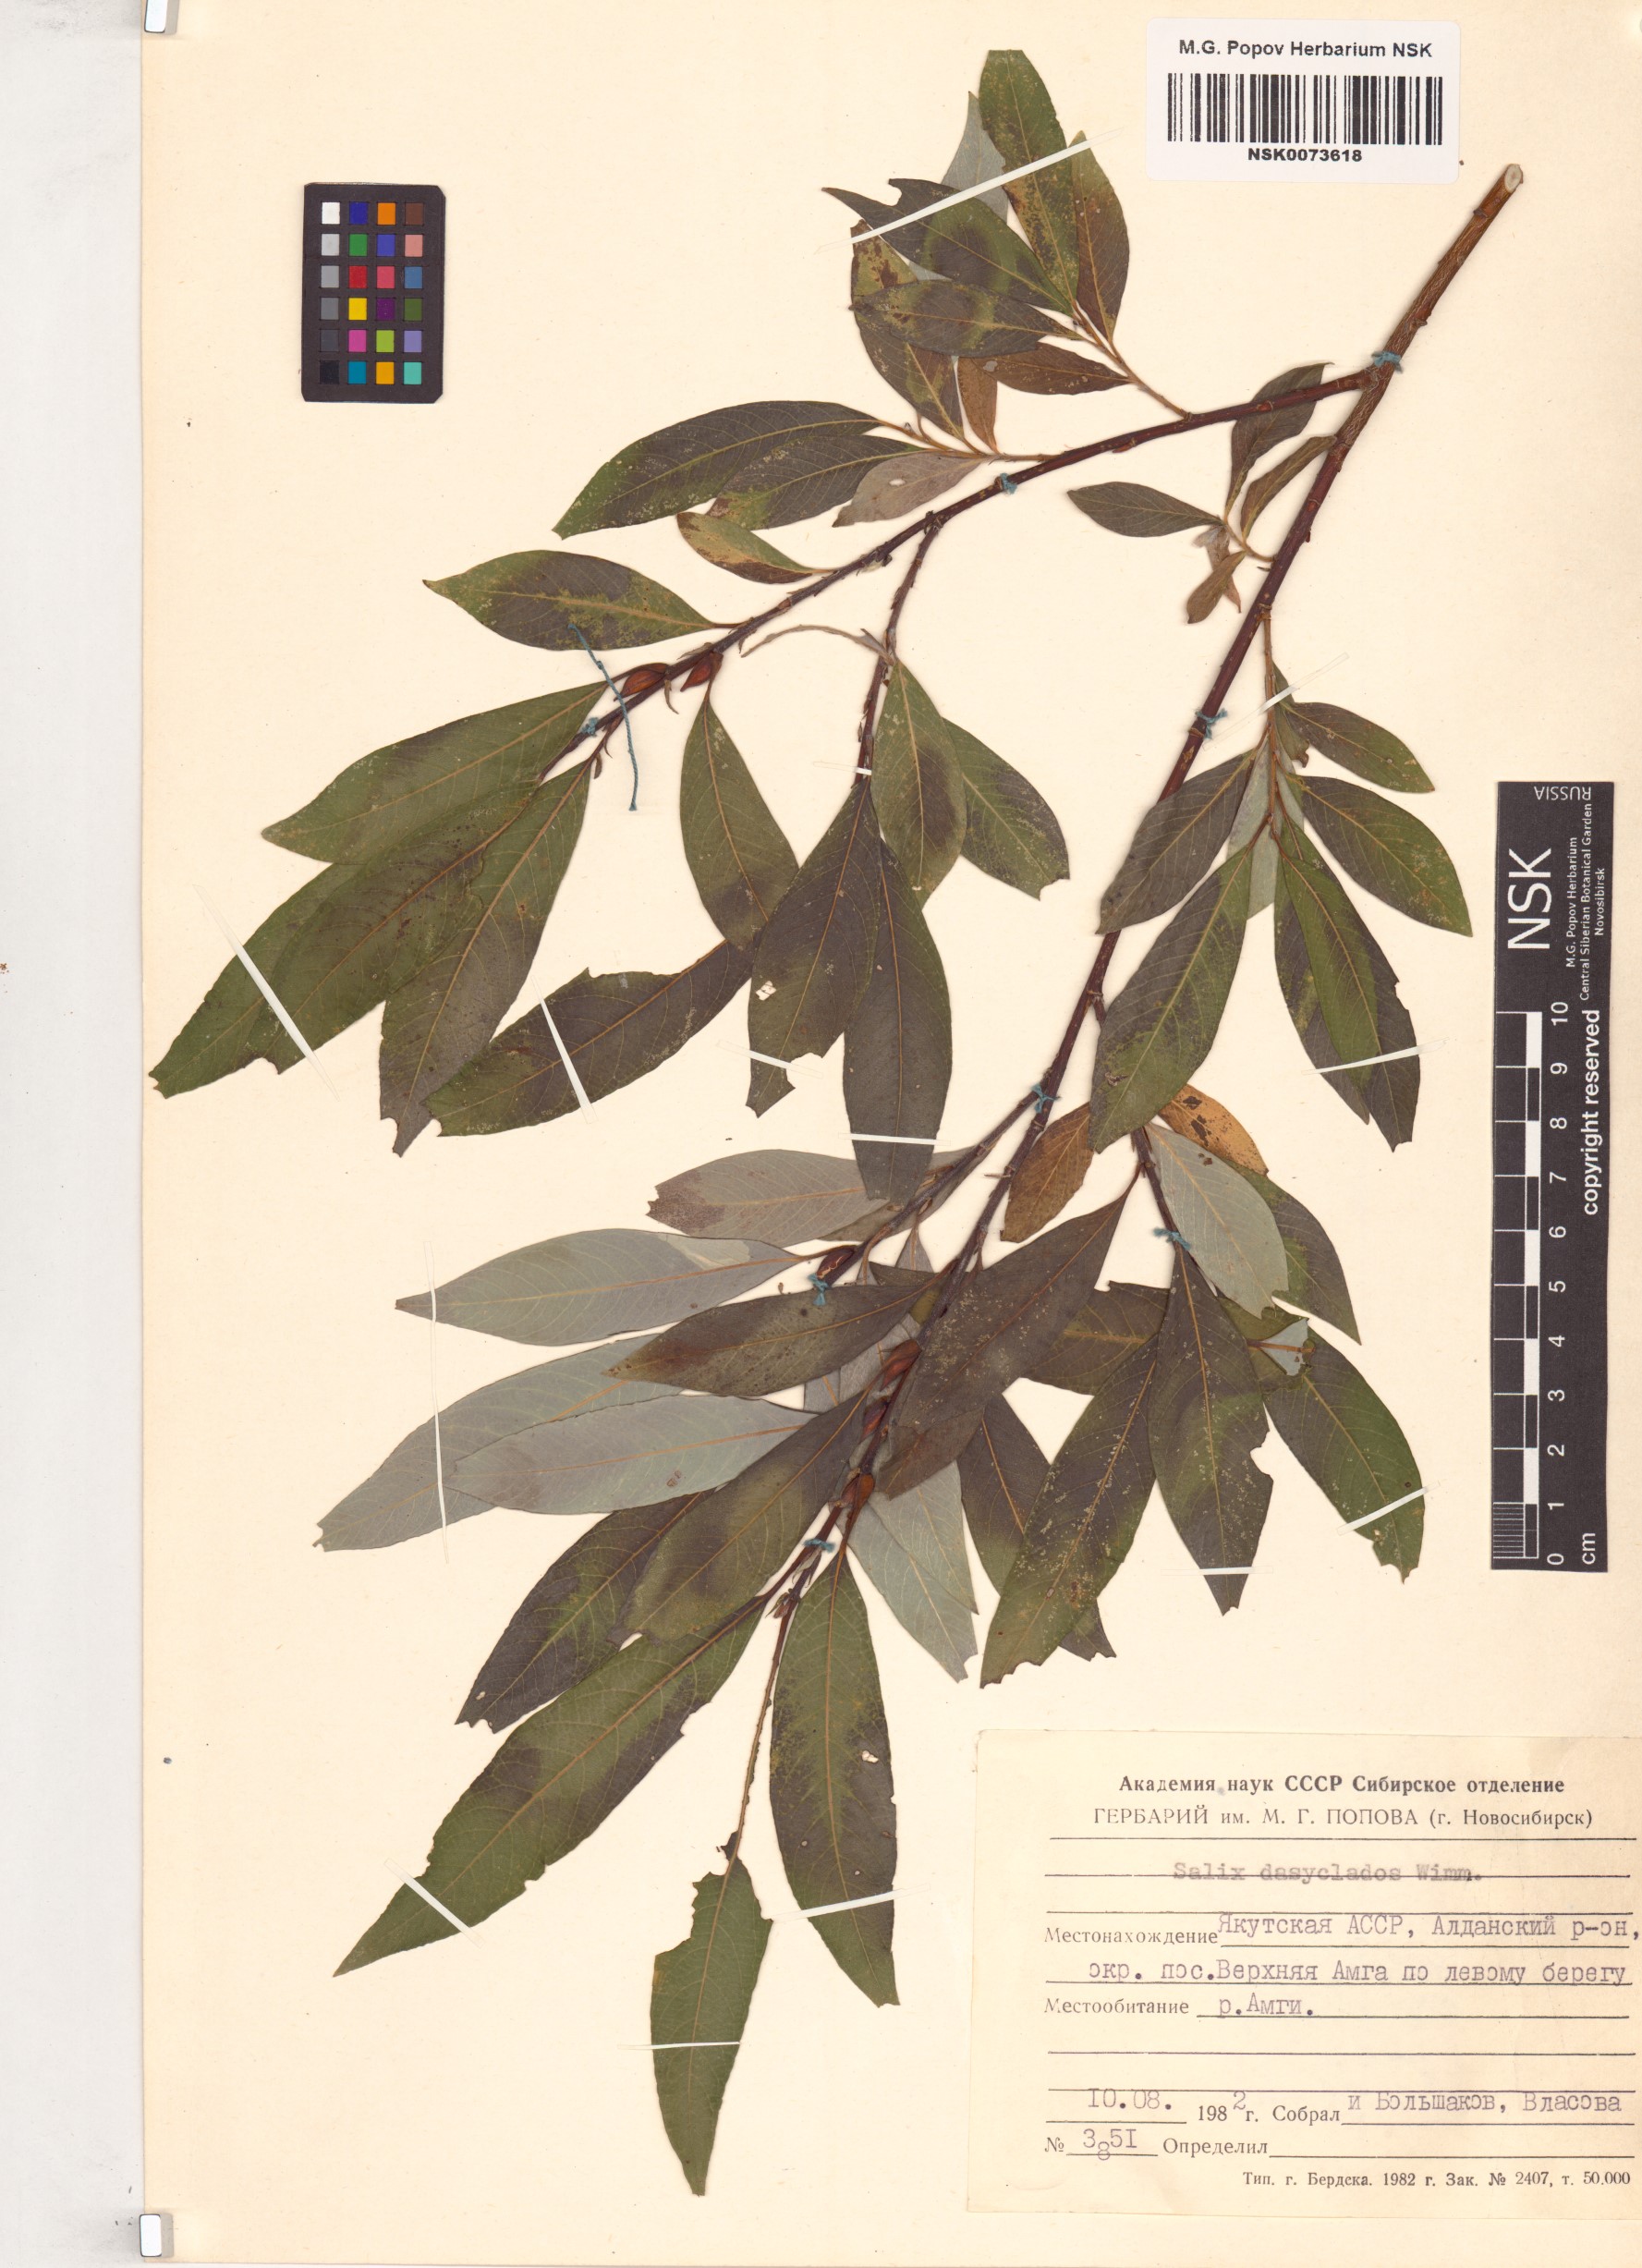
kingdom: Plantae
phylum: Tracheophyta
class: Magnoliopsida
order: Malpighiales
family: Salicaceae
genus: Salix
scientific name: Salix gmelinii
